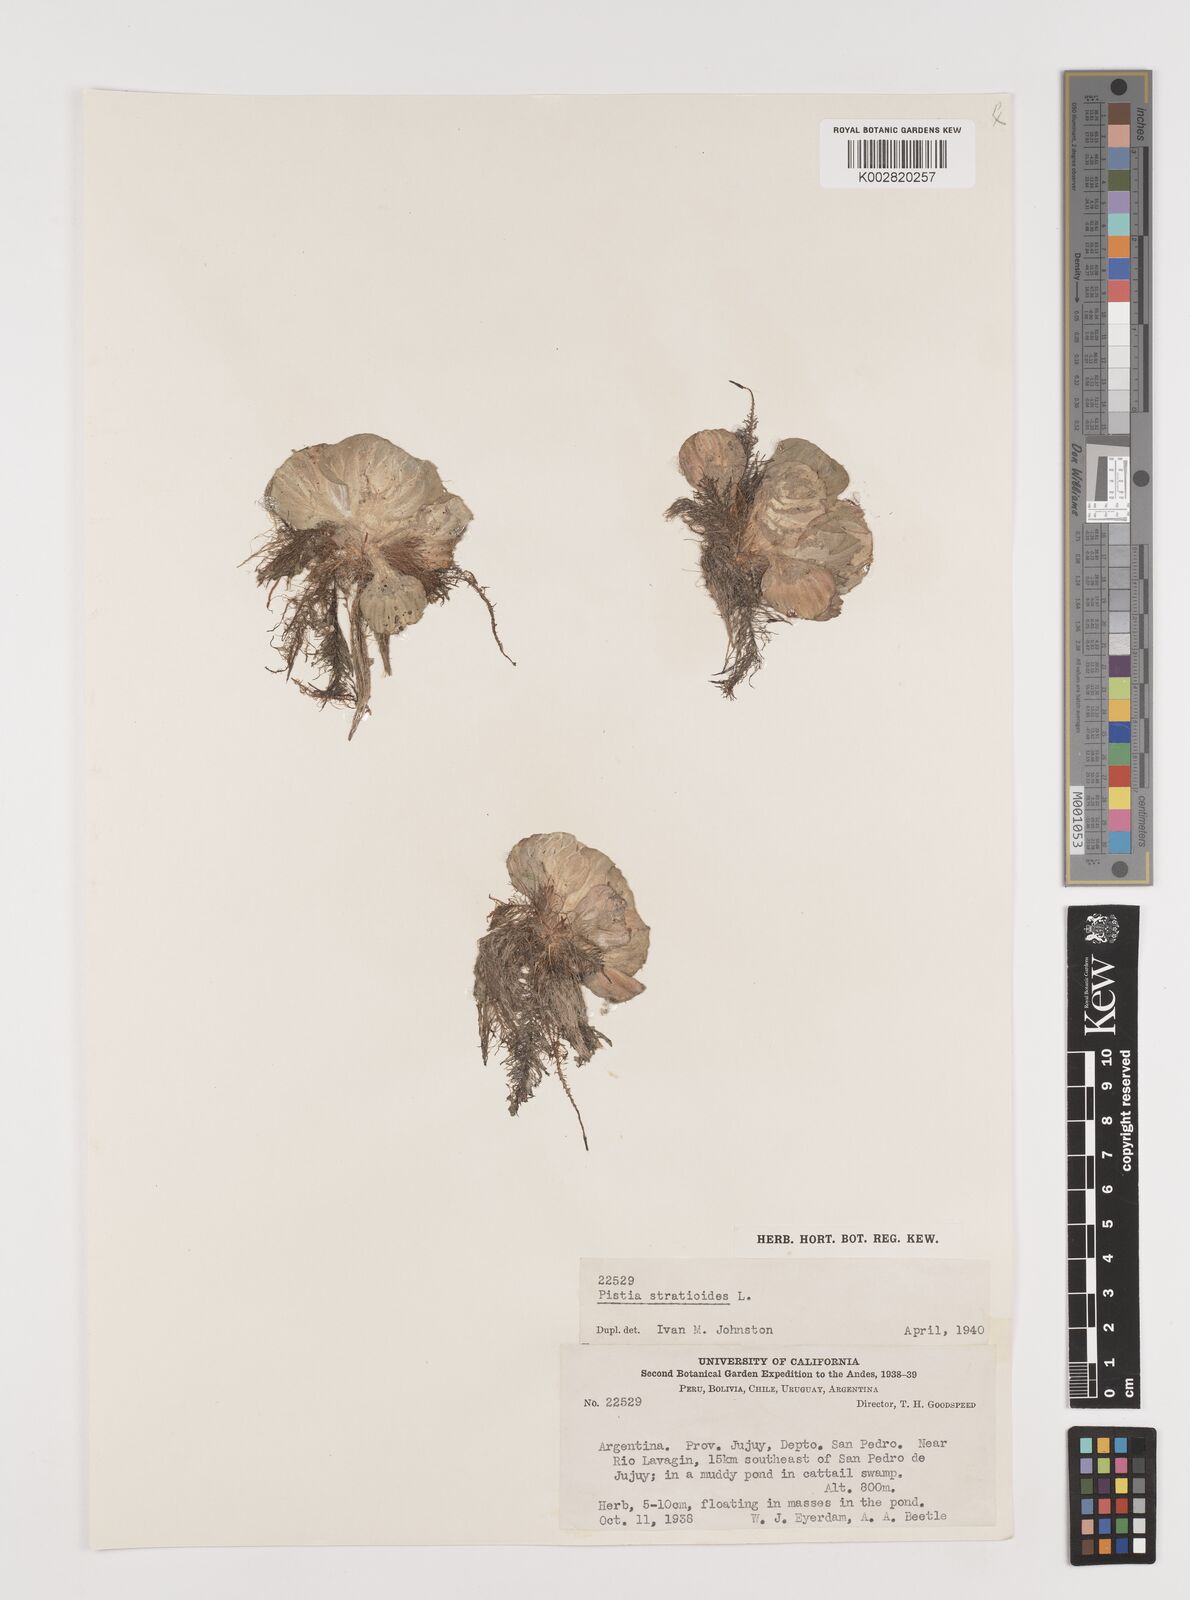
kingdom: Plantae
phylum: Tracheophyta
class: Liliopsida
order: Alismatales
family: Araceae
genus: Pistia
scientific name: Pistia stratiotes
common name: Water lettuce
